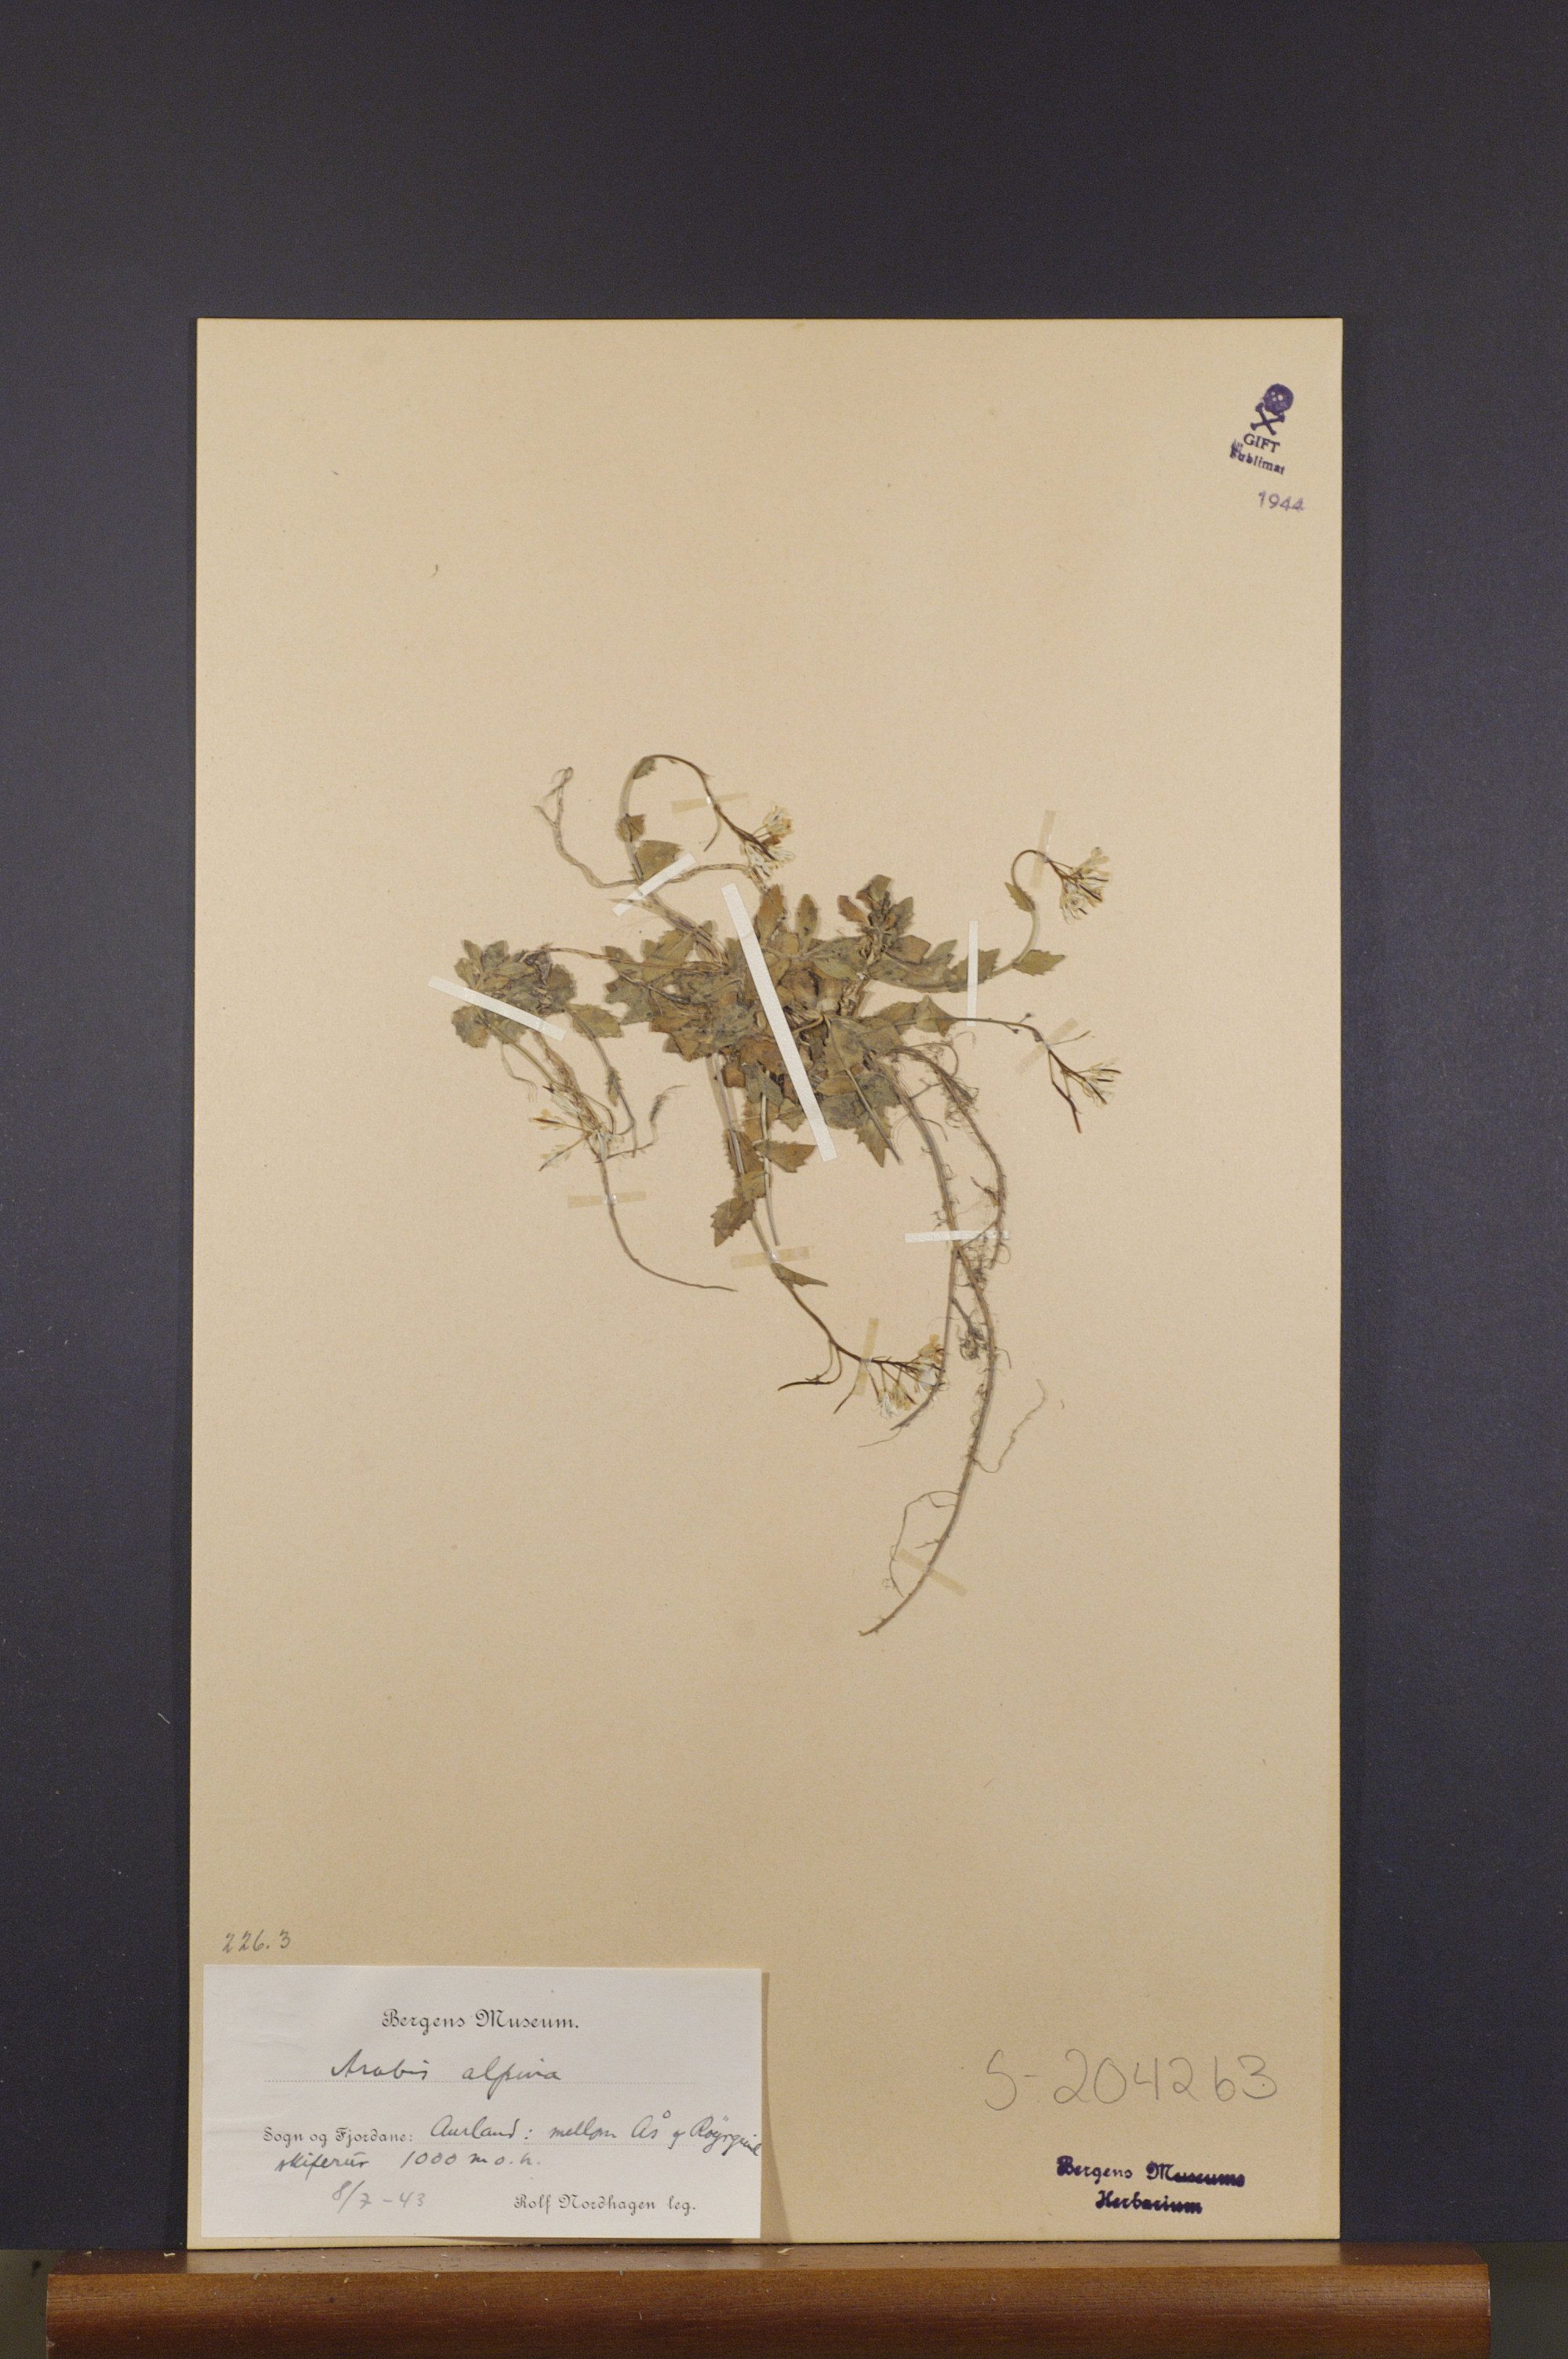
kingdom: Plantae
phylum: Tracheophyta
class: Magnoliopsida
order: Brassicales
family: Brassicaceae
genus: Arabis
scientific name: Arabis alpina
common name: Alpine rock-cress
